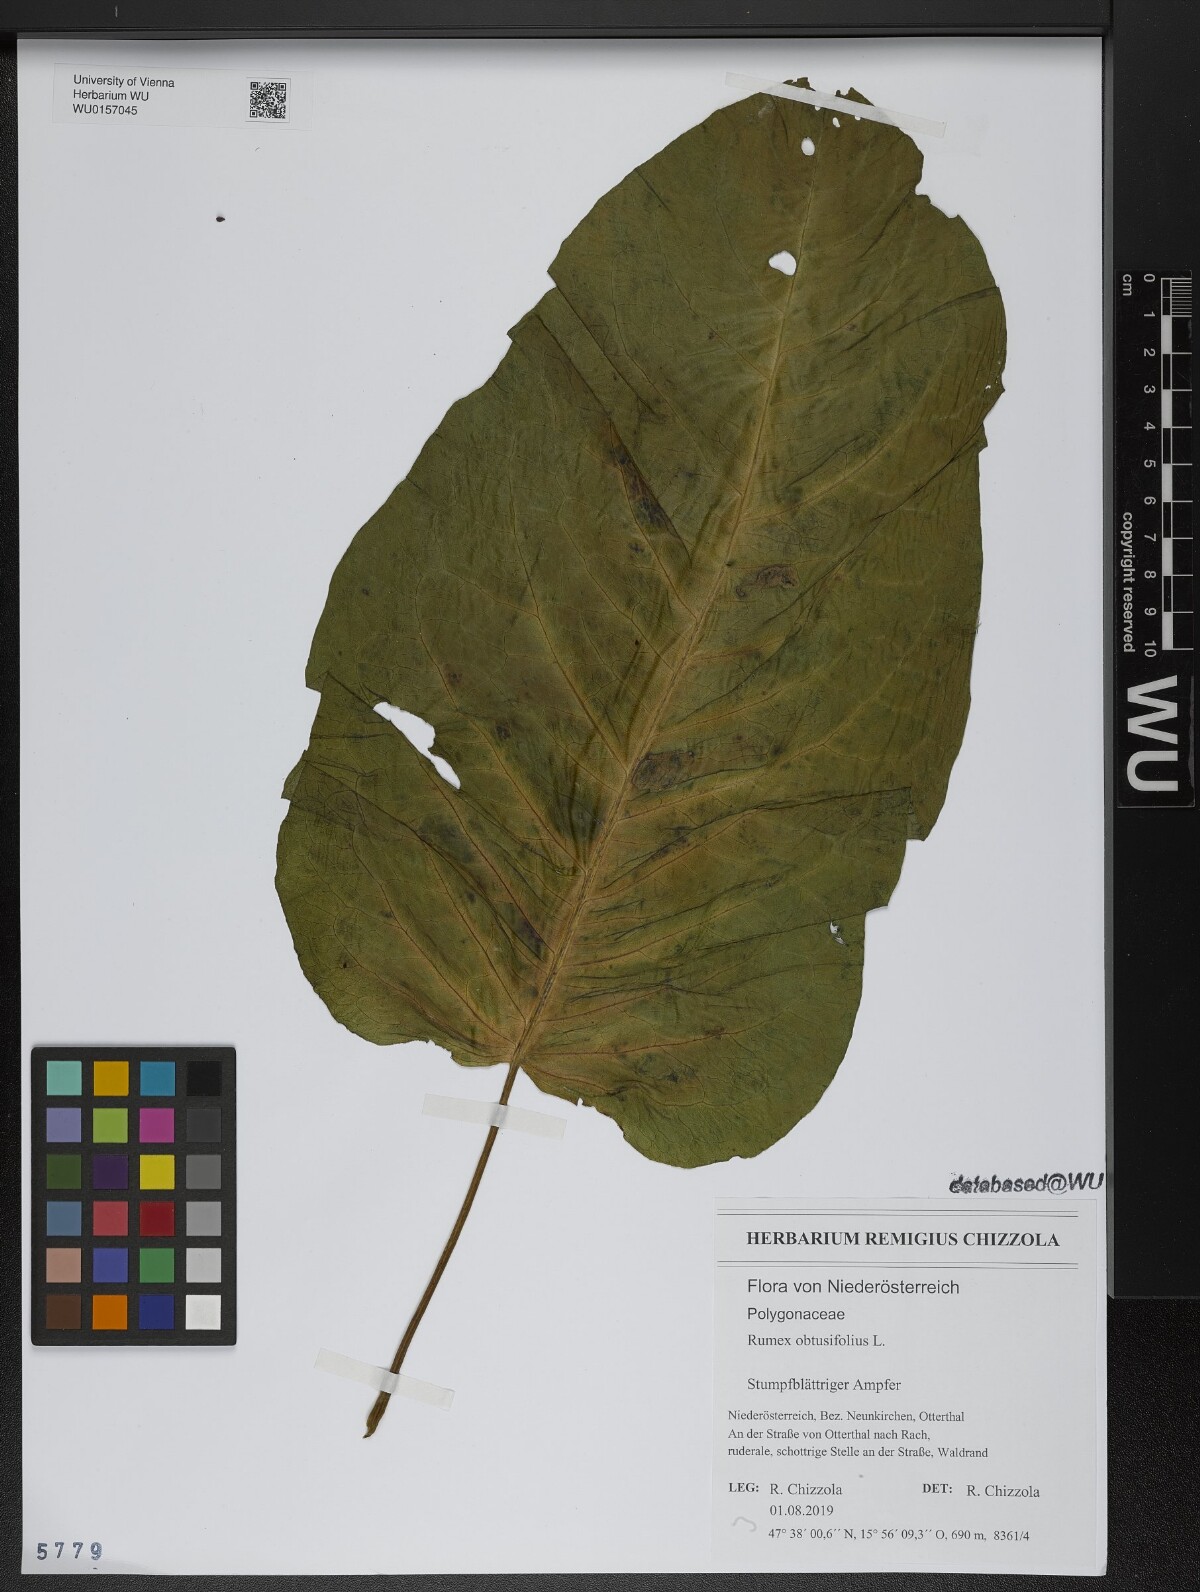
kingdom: Plantae
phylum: Tracheophyta
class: Magnoliopsida
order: Caryophyllales
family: Polygonaceae
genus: Rumex
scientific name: Rumex obtusifolius
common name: Bitter dock
